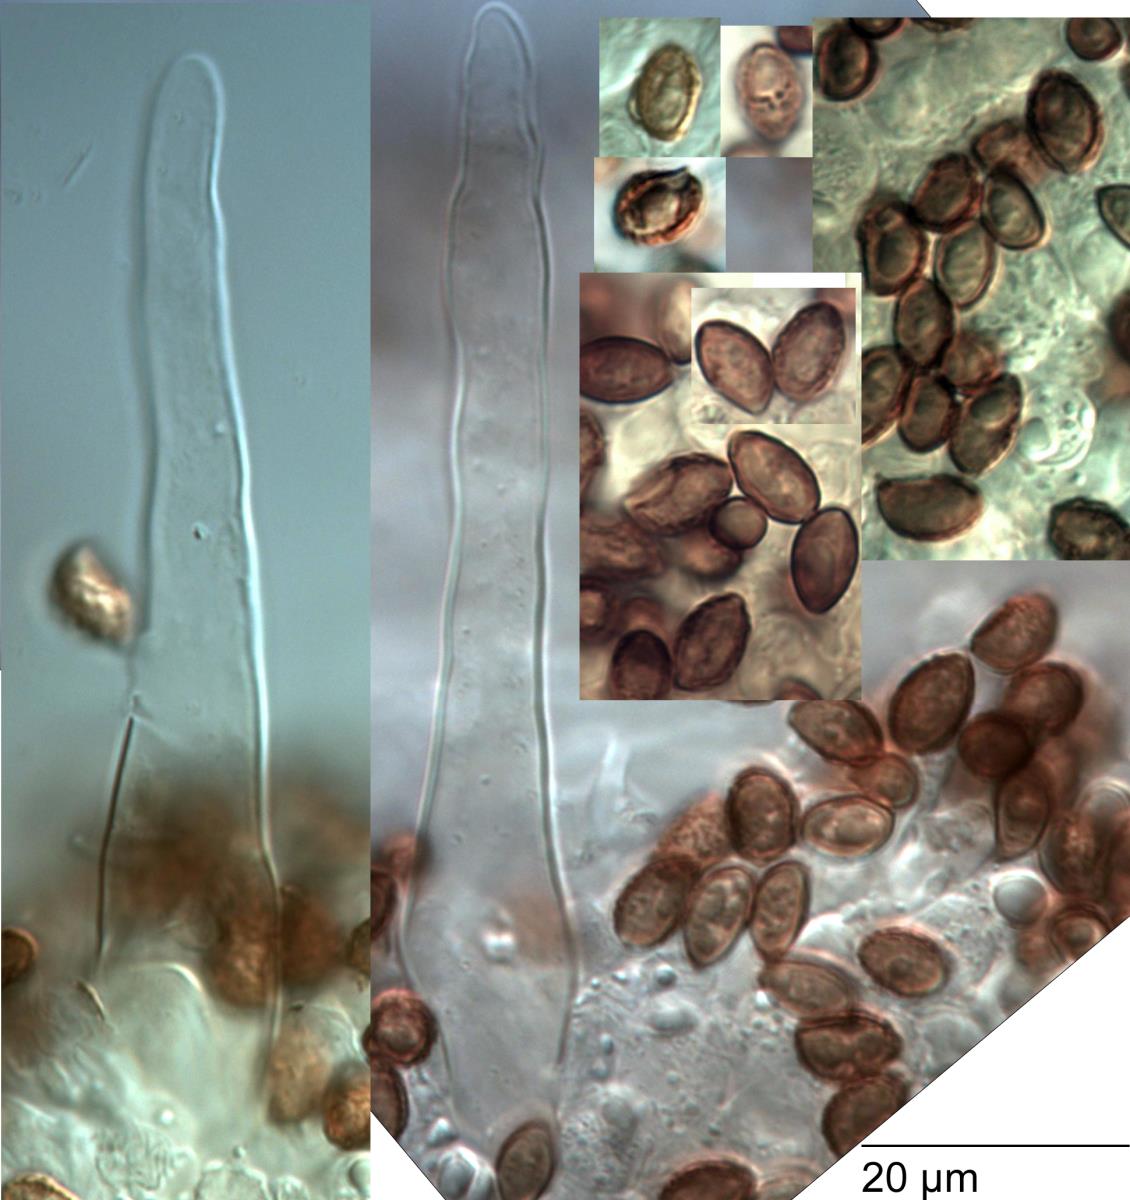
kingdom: Fungi
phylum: Basidiomycota
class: Agaricomycetes
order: Agaricales
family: Hymenogastraceae
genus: Galerina
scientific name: Galerina nana
